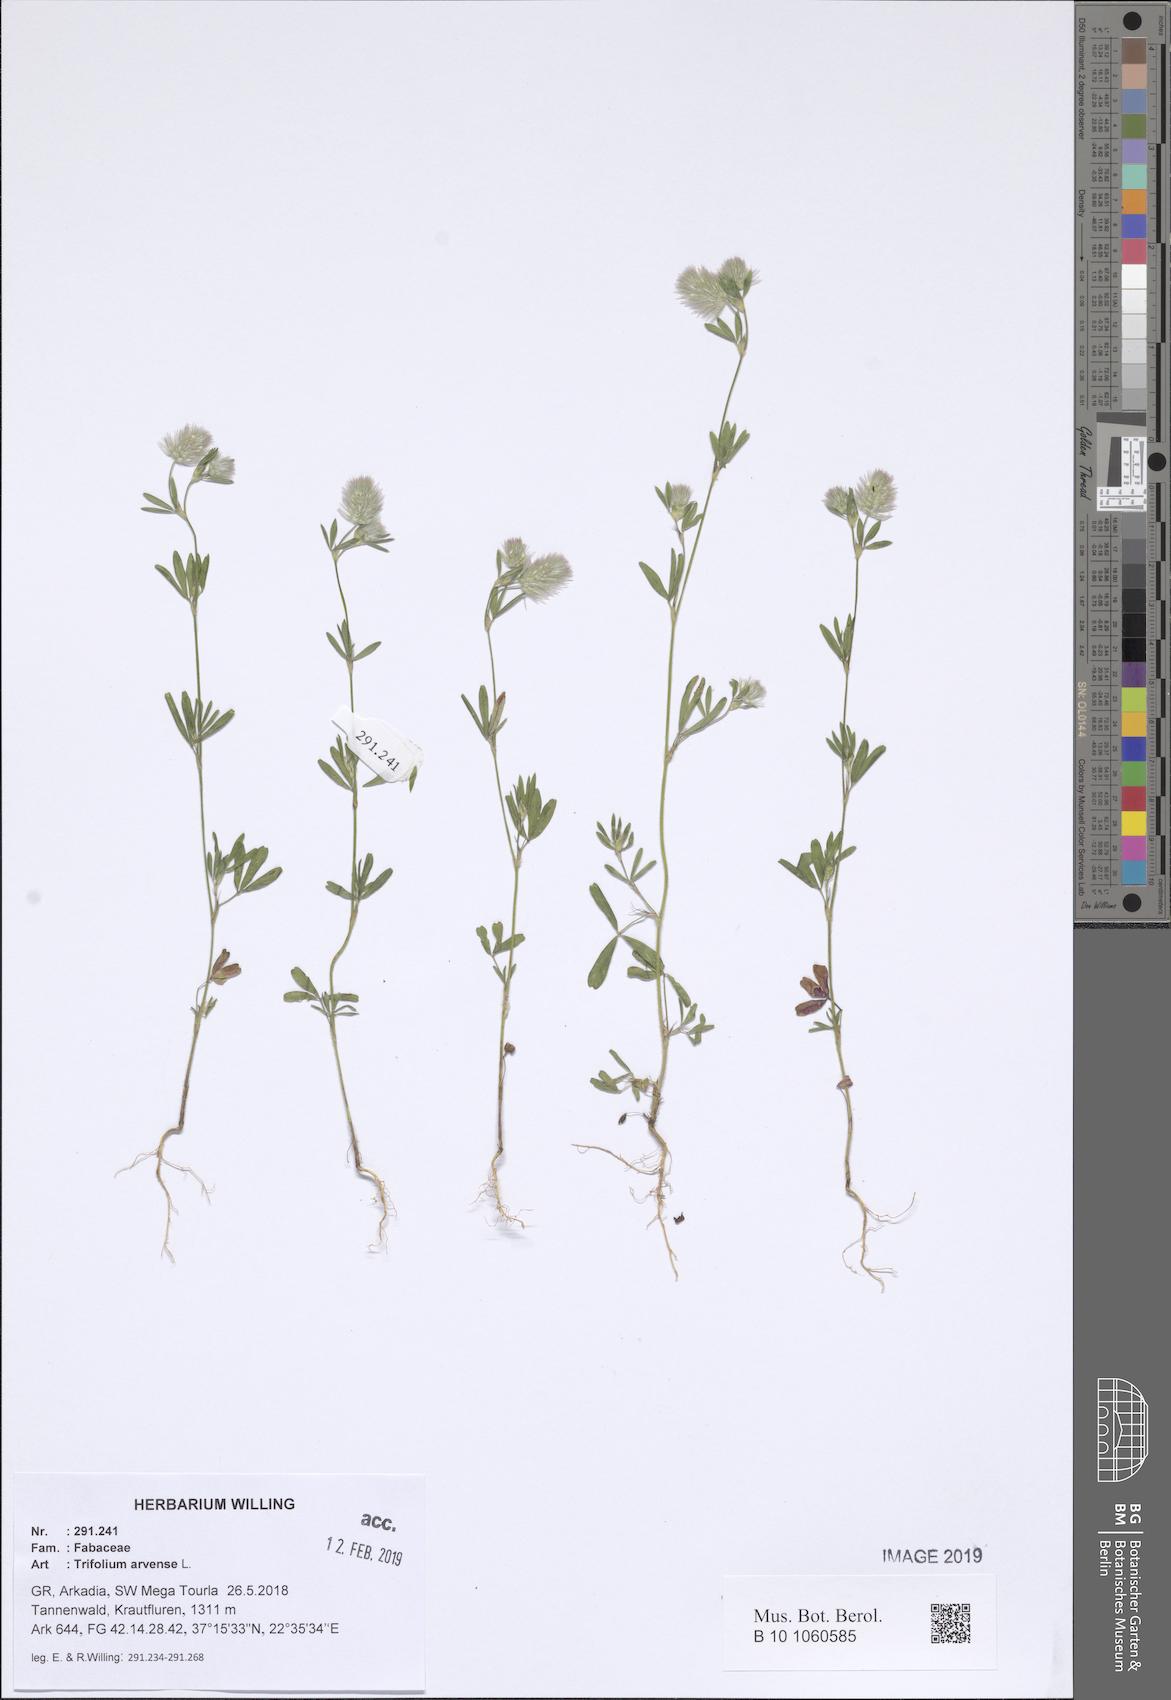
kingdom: Plantae
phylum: Tracheophyta
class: Magnoliopsida
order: Fabales
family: Fabaceae
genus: Trifolium
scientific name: Trifolium arvense
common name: Hare's-foot clover
